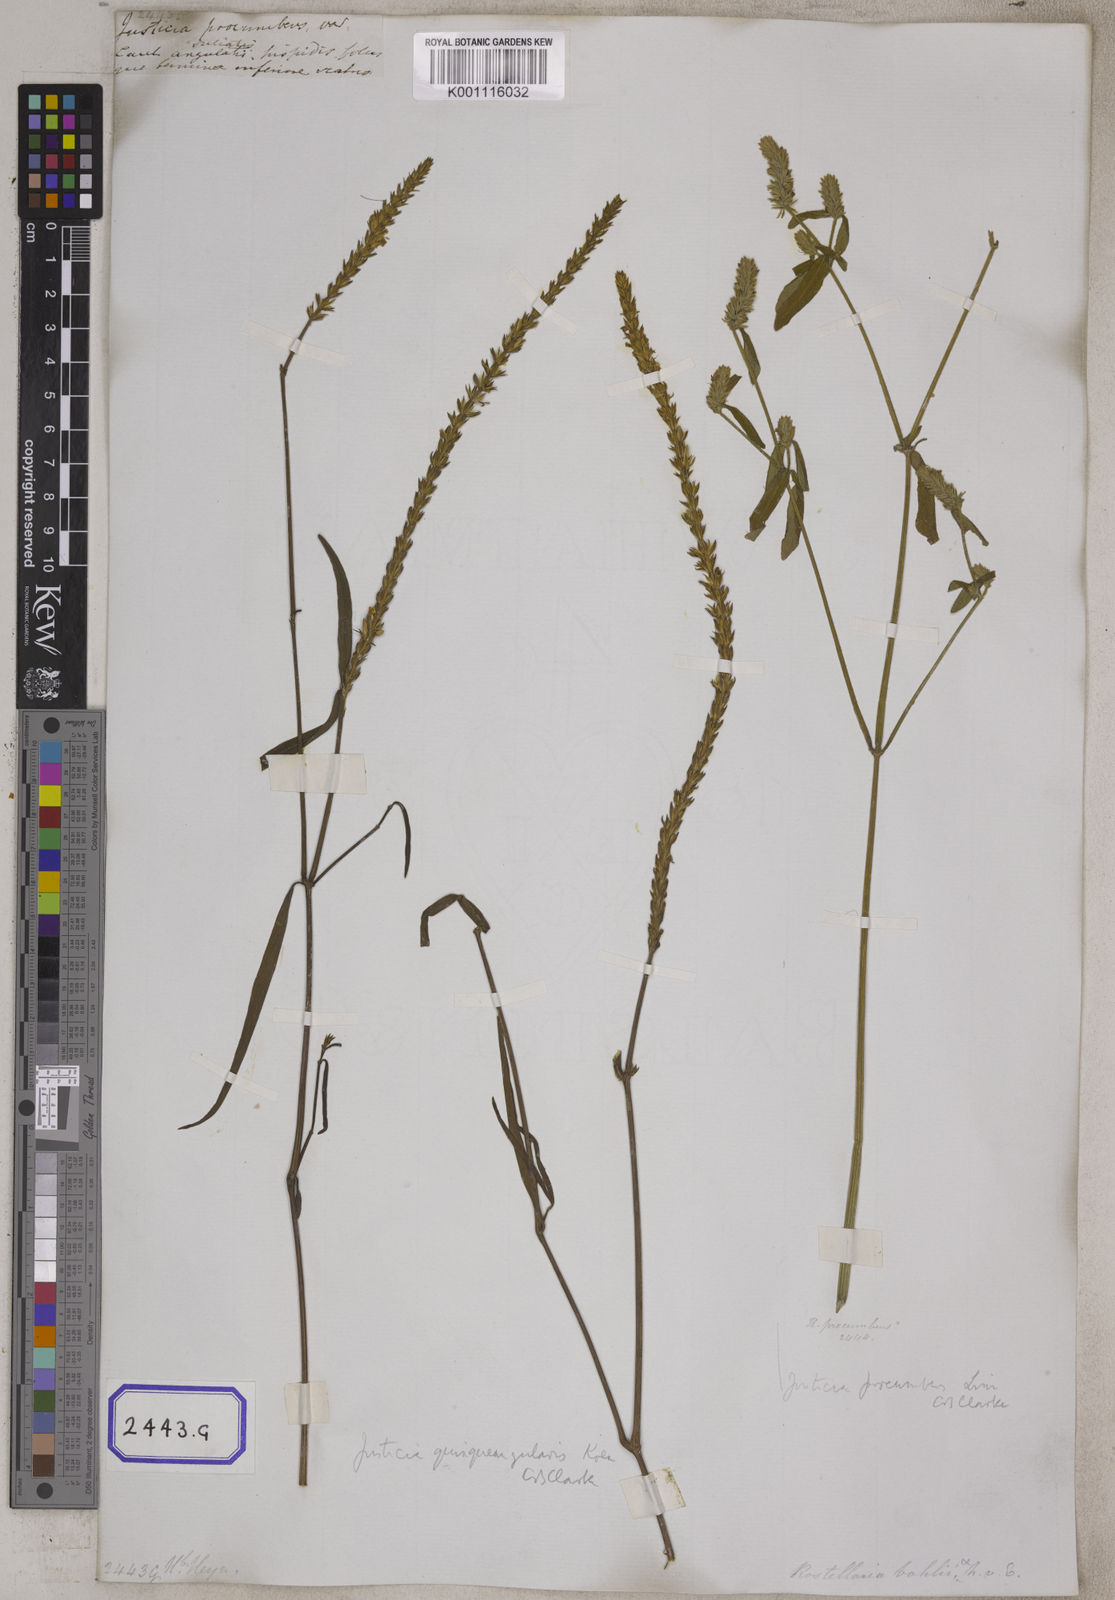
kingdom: Plantae
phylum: Tracheophyta
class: Magnoliopsida
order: Lamiales
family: Acanthaceae
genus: Rostellularia
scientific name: Rostellularia diffusa
